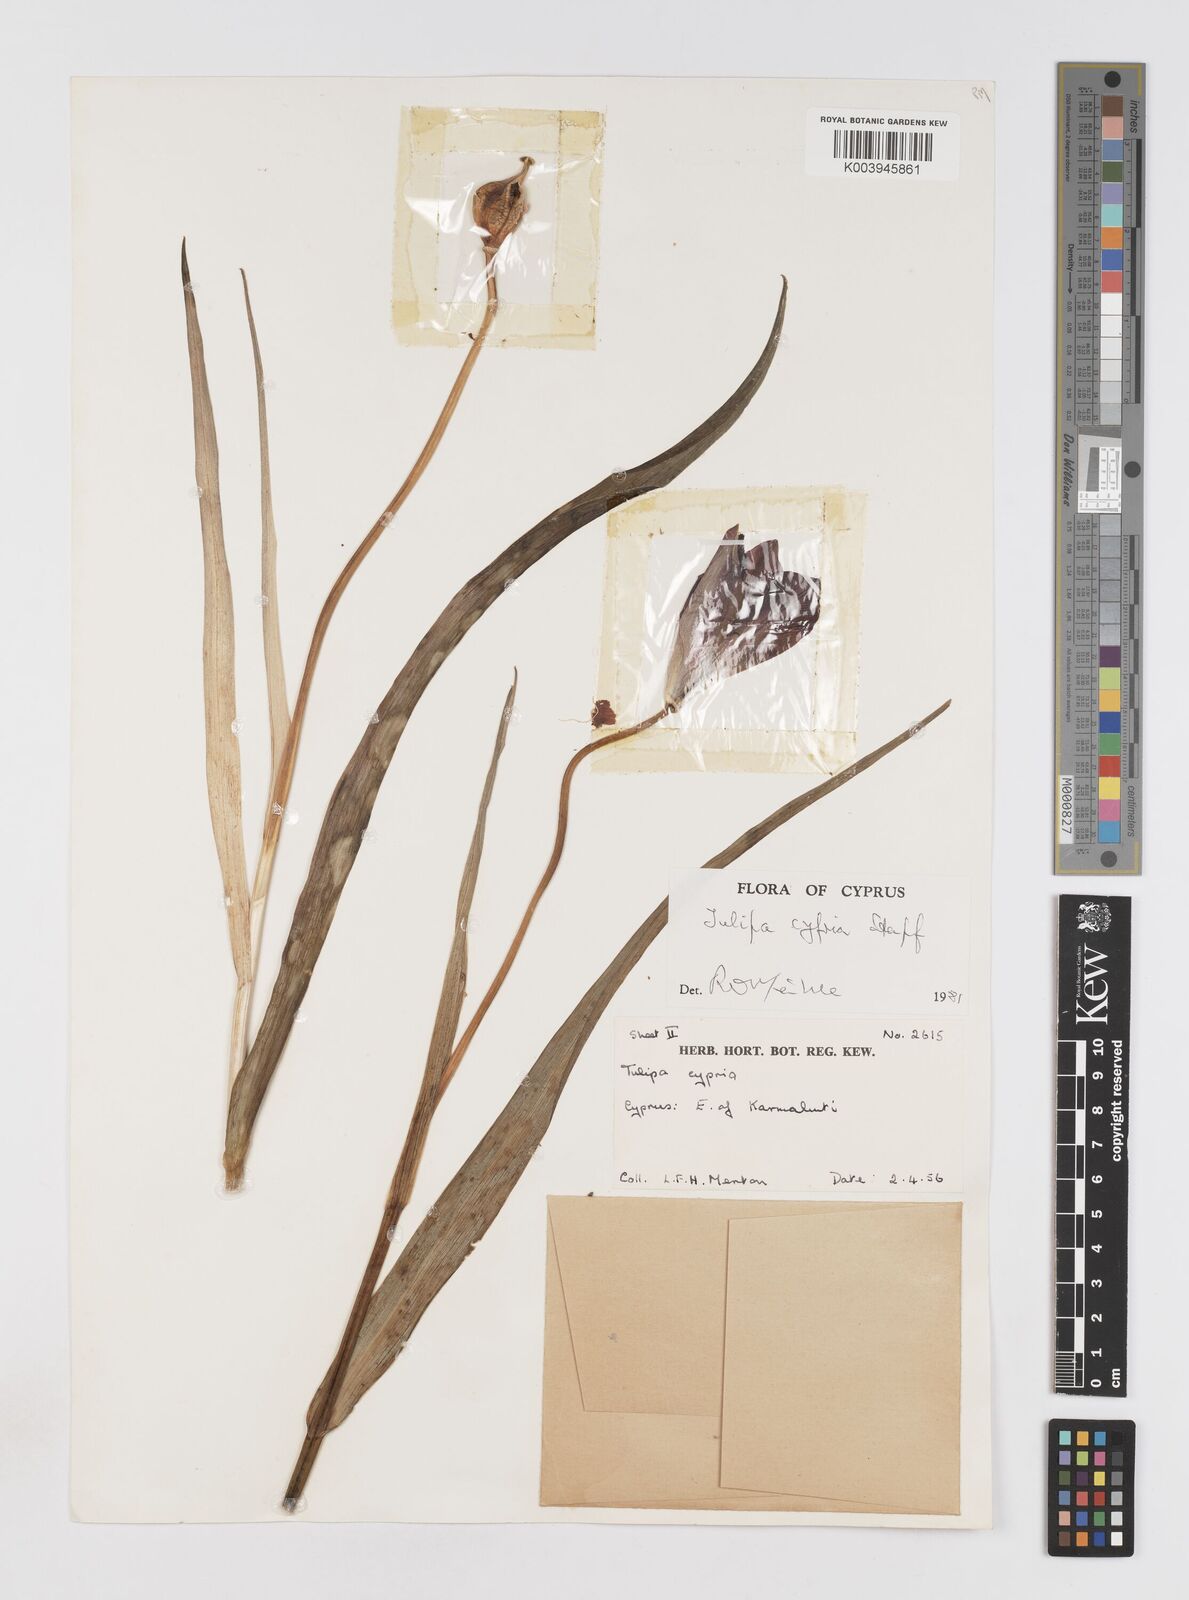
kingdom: Plantae
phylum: Tracheophyta
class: Liliopsida
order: Liliales
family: Liliaceae
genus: Tulipa
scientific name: Tulipa agenensis
